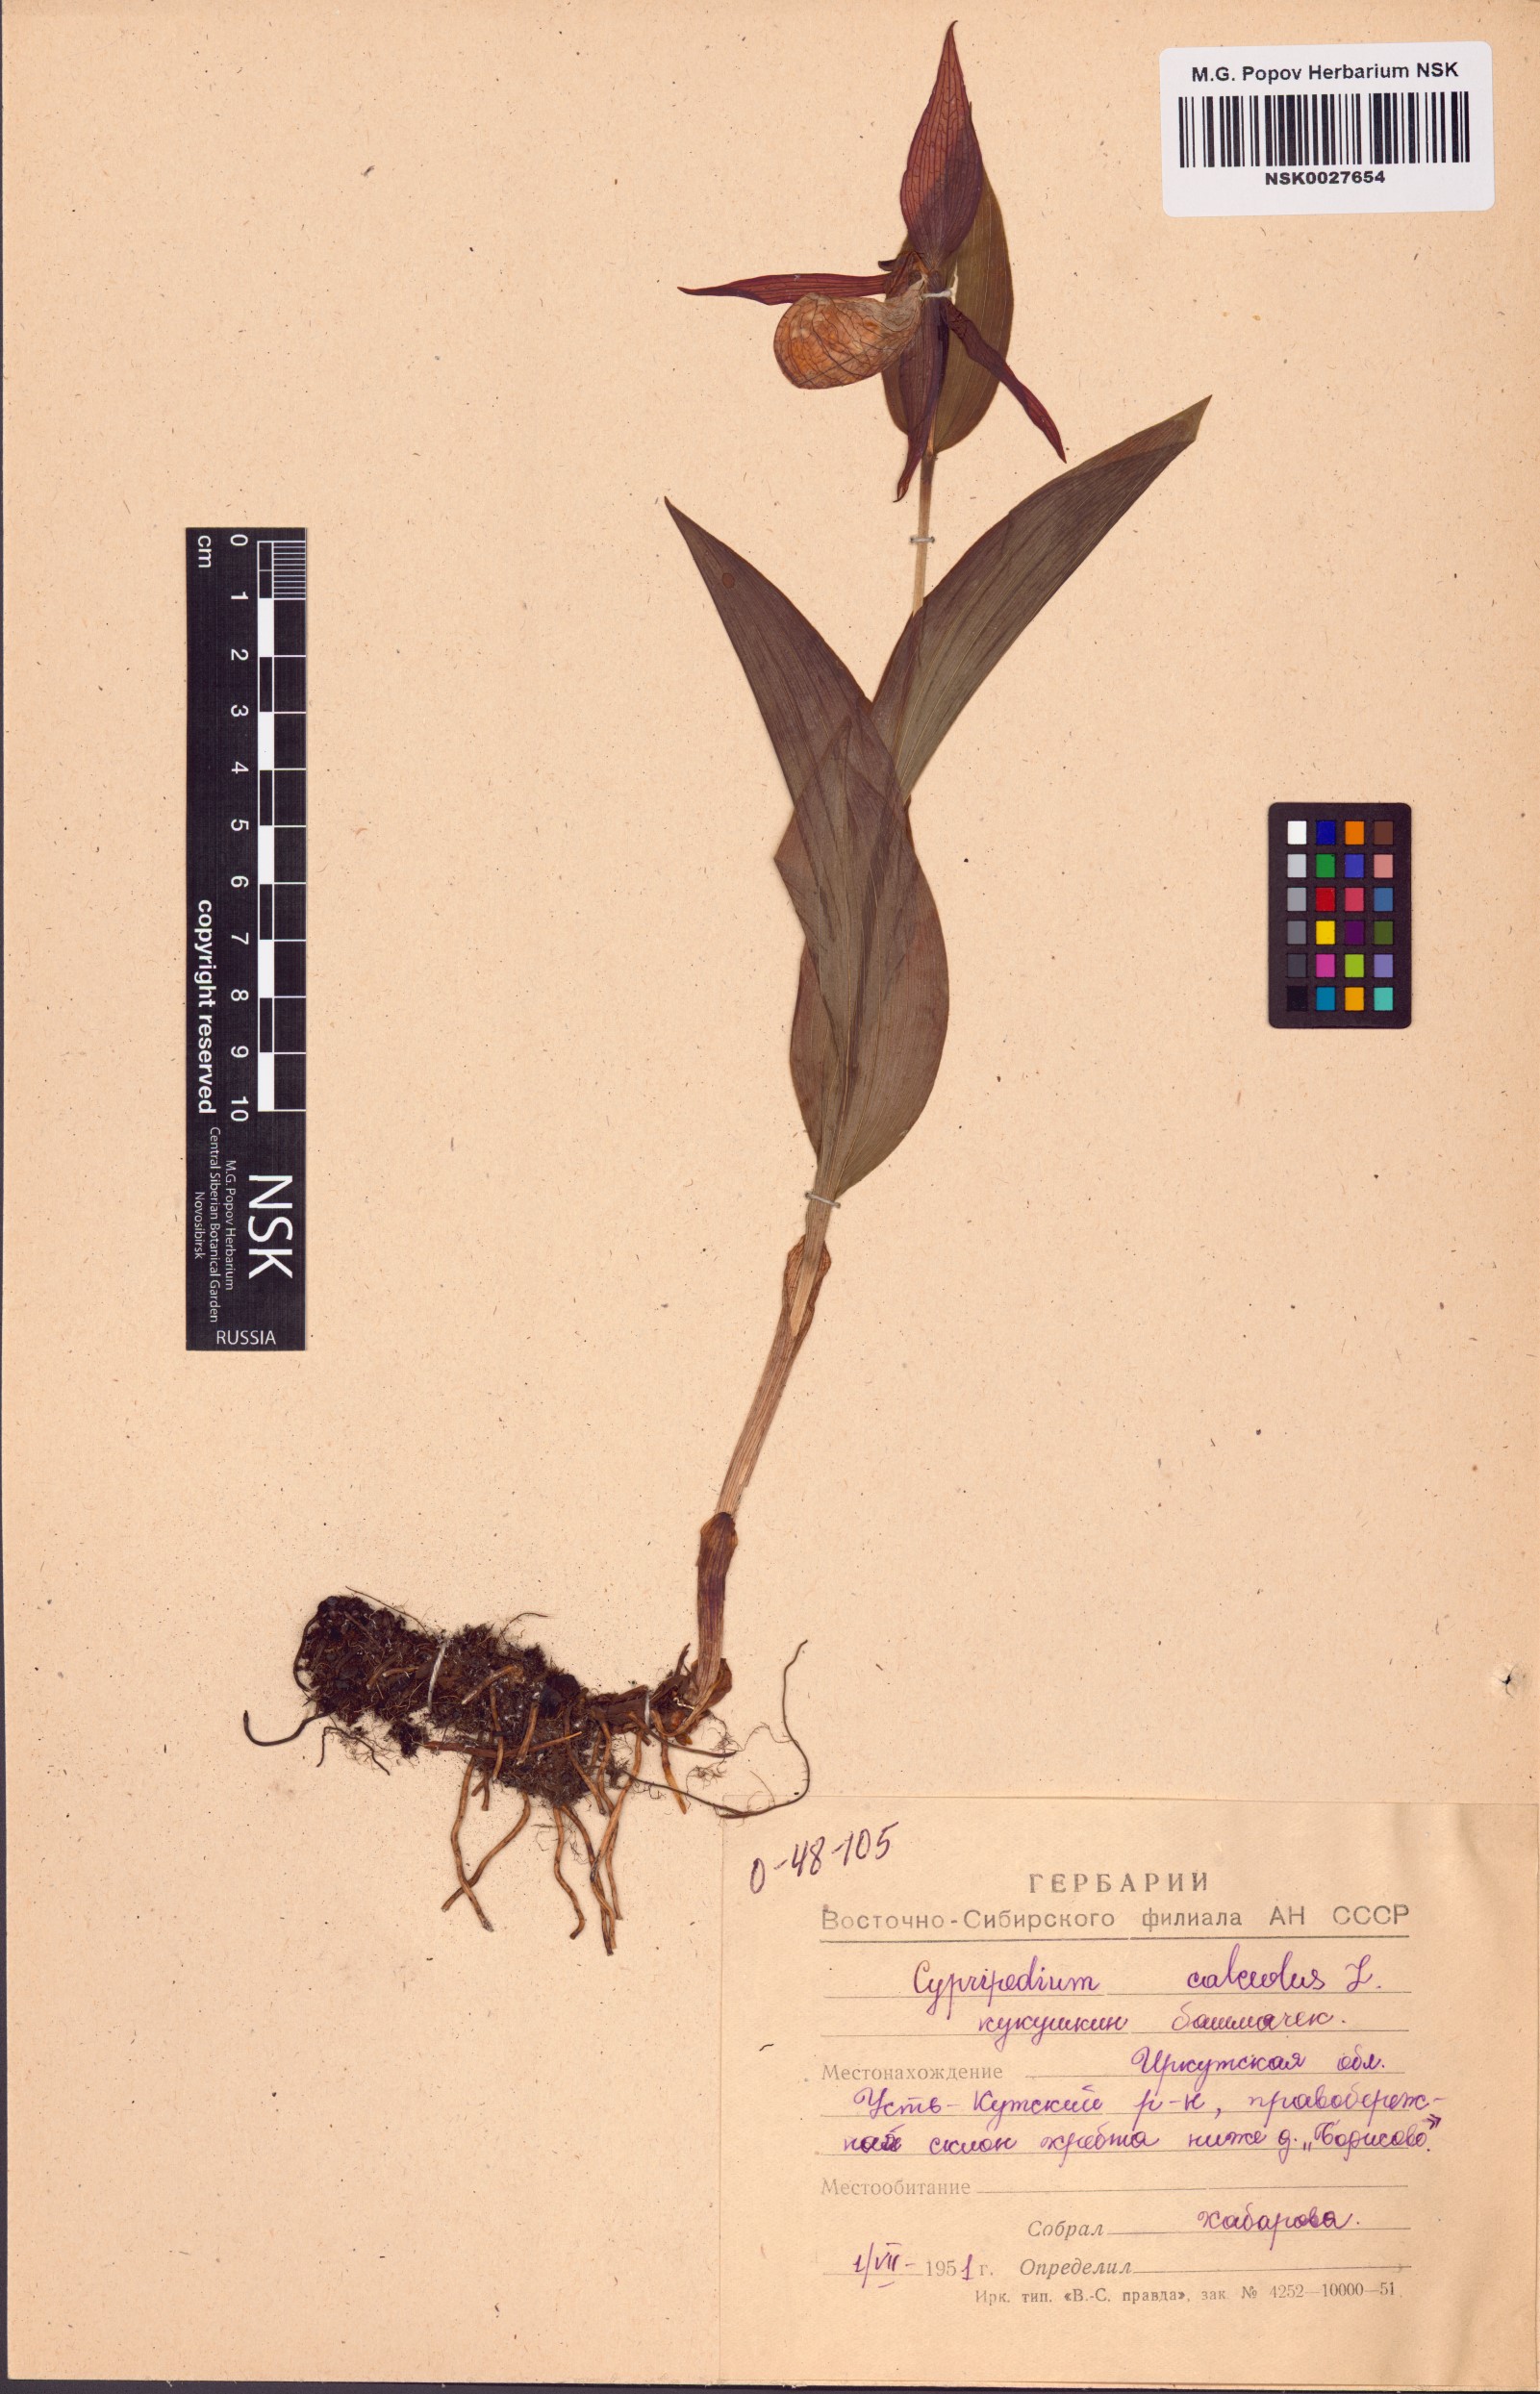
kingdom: Plantae
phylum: Tracheophyta
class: Liliopsida
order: Asparagales
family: Orchidaceae
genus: Cypripedium
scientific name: Cypripedium calceolus
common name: Lady's-slipper
